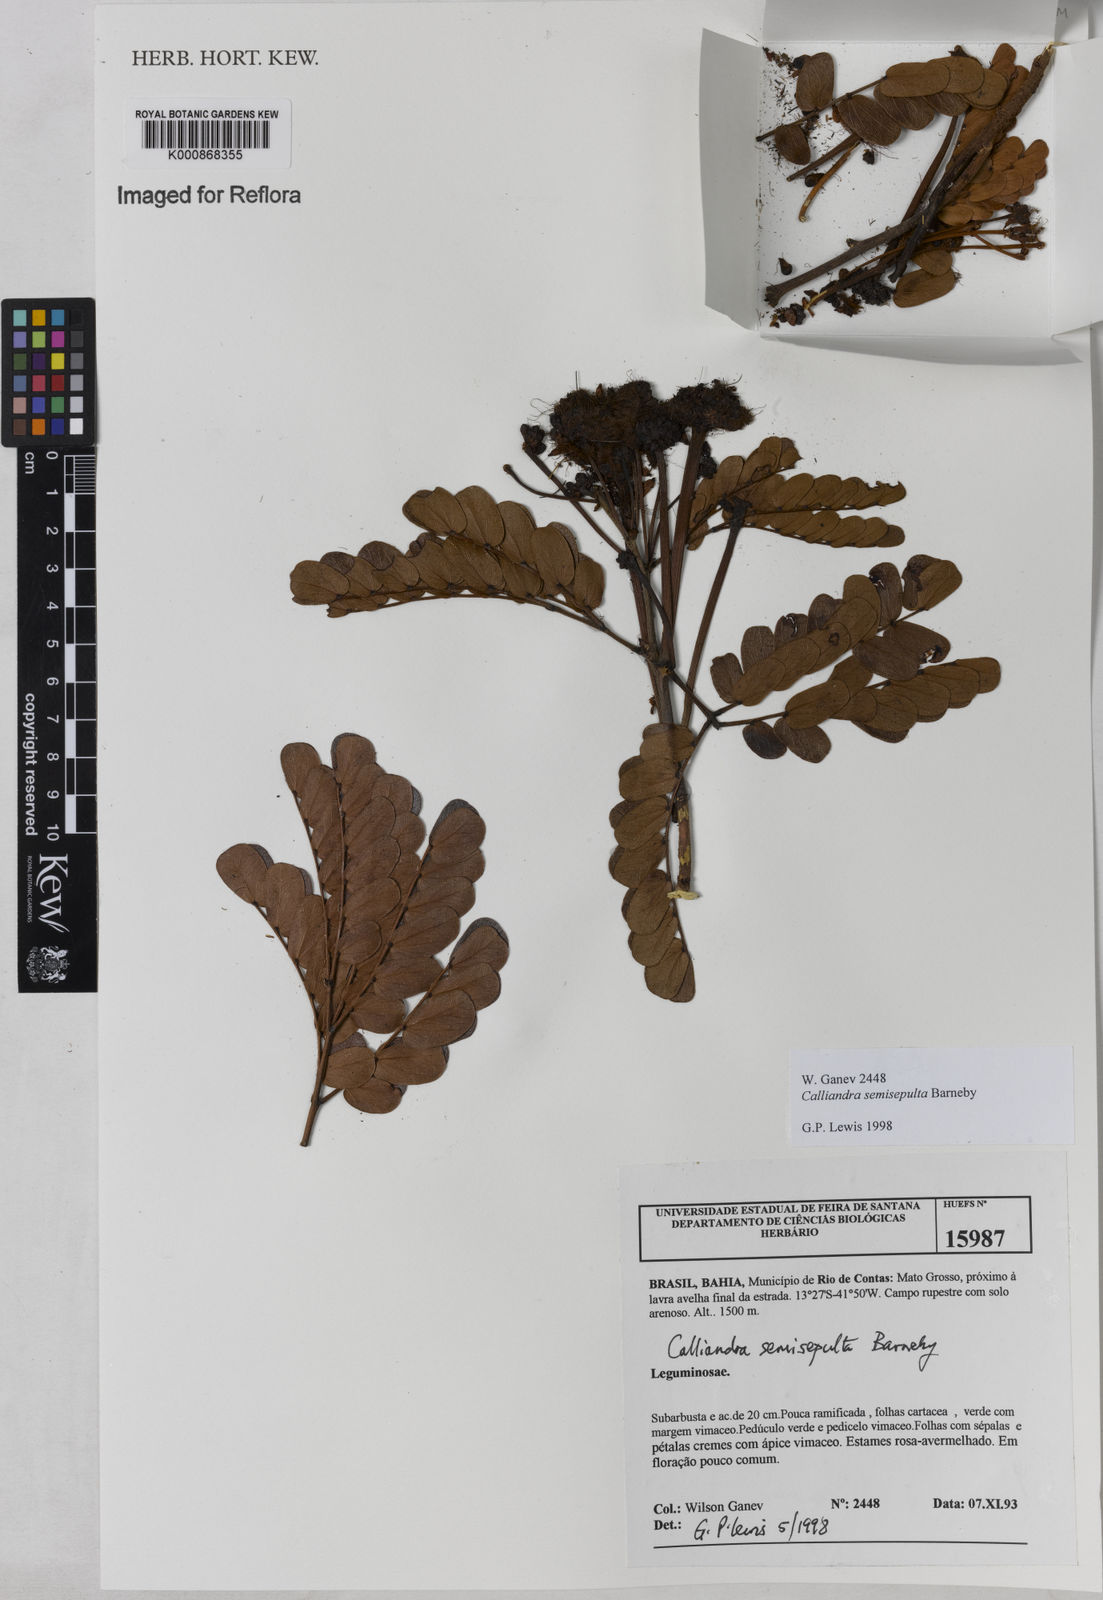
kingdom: Plantae
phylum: Tracheophyta
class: Magnoliopsida
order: Fabales
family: Fabaceae
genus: Calliandra
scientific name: Calliandra semisepulta
